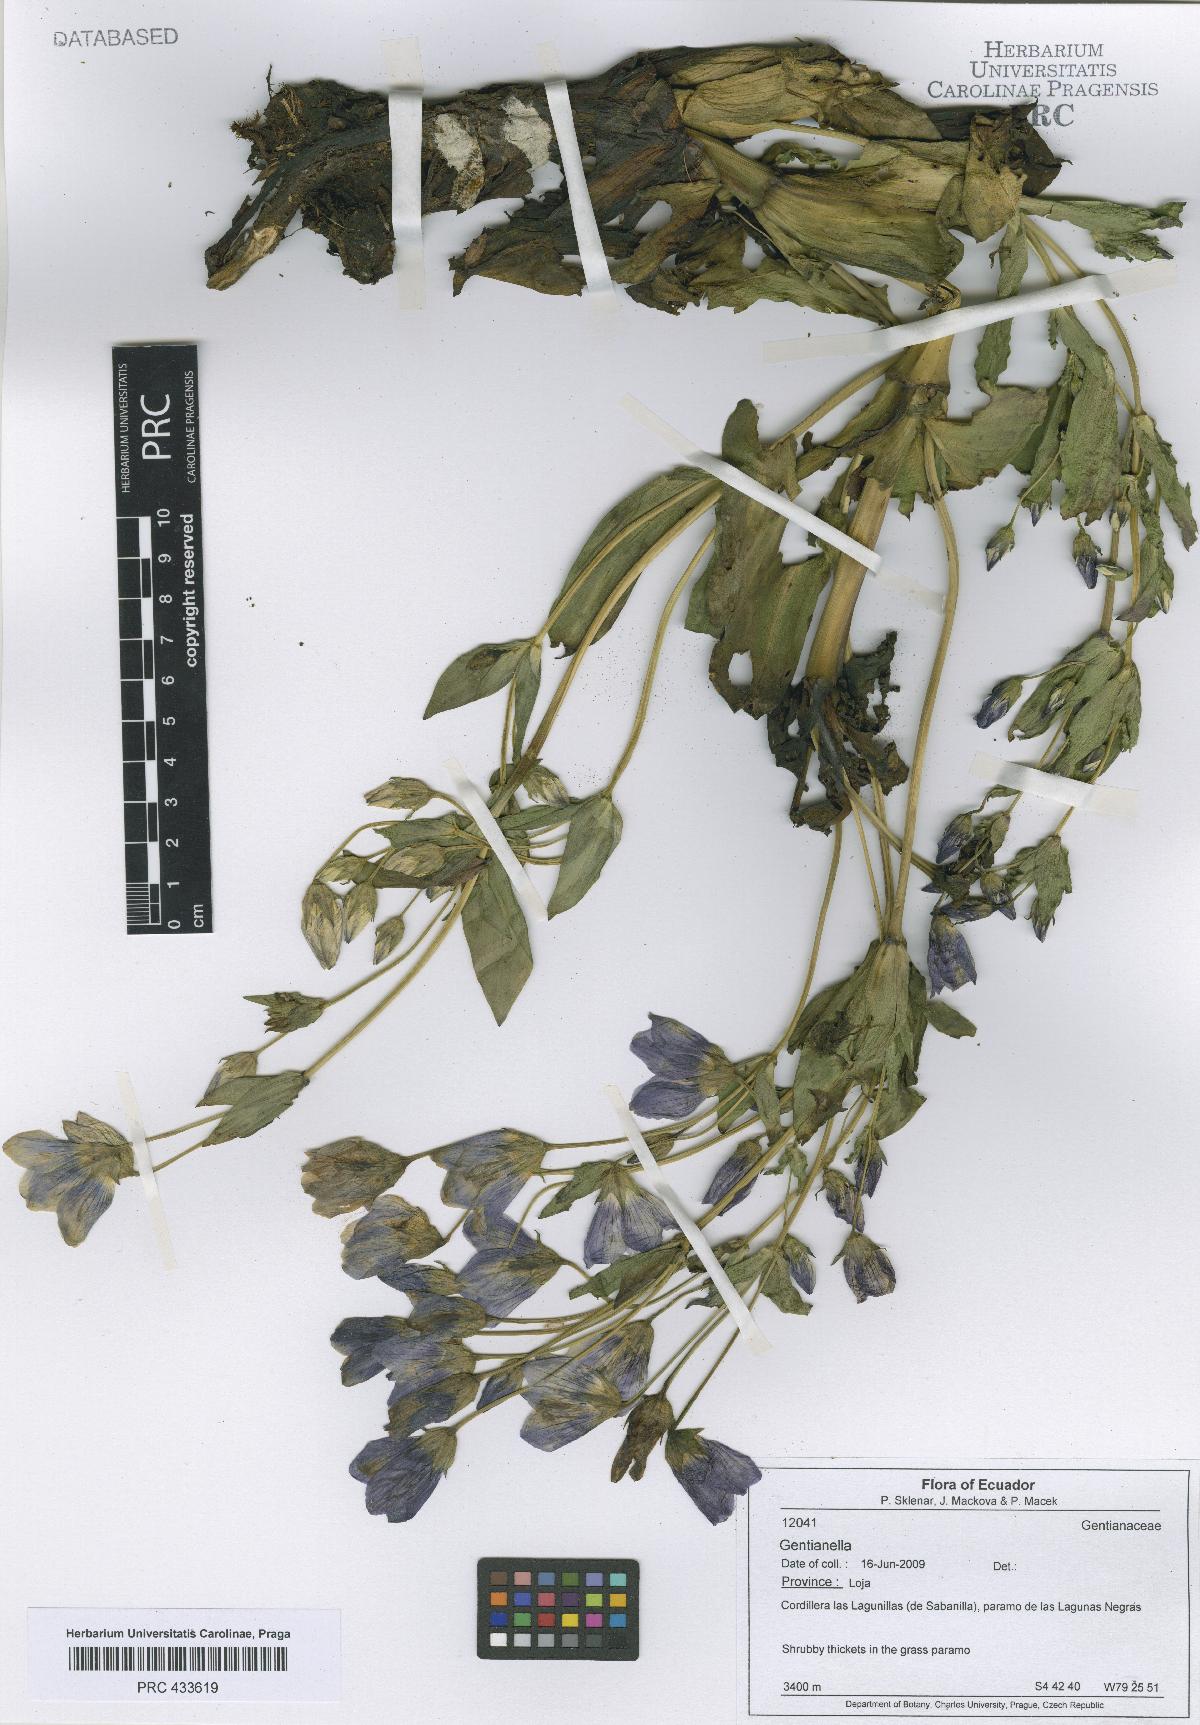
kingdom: Plantae
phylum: Tracheophyta
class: Magnoliopsida
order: Gentianales
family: Gentianaceae
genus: Gentianella
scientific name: Gentianella
